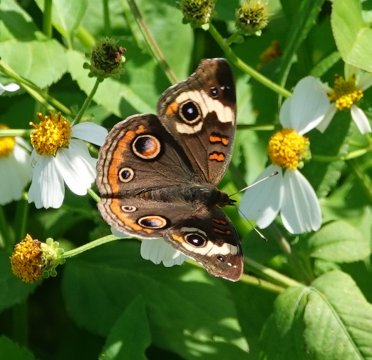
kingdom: Animalia
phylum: Arthropoda
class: Insecta
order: Lepidoptera
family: Nymphalidae
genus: Junonia
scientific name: Junonia coenia
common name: Common Buckeye
